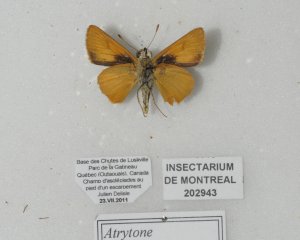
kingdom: Animalia
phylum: Arthropoda
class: Insecta
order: Lepidoptera
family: Hesperiidae
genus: Atrytone
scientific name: Atrytone delaware
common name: Delaware Skipper
